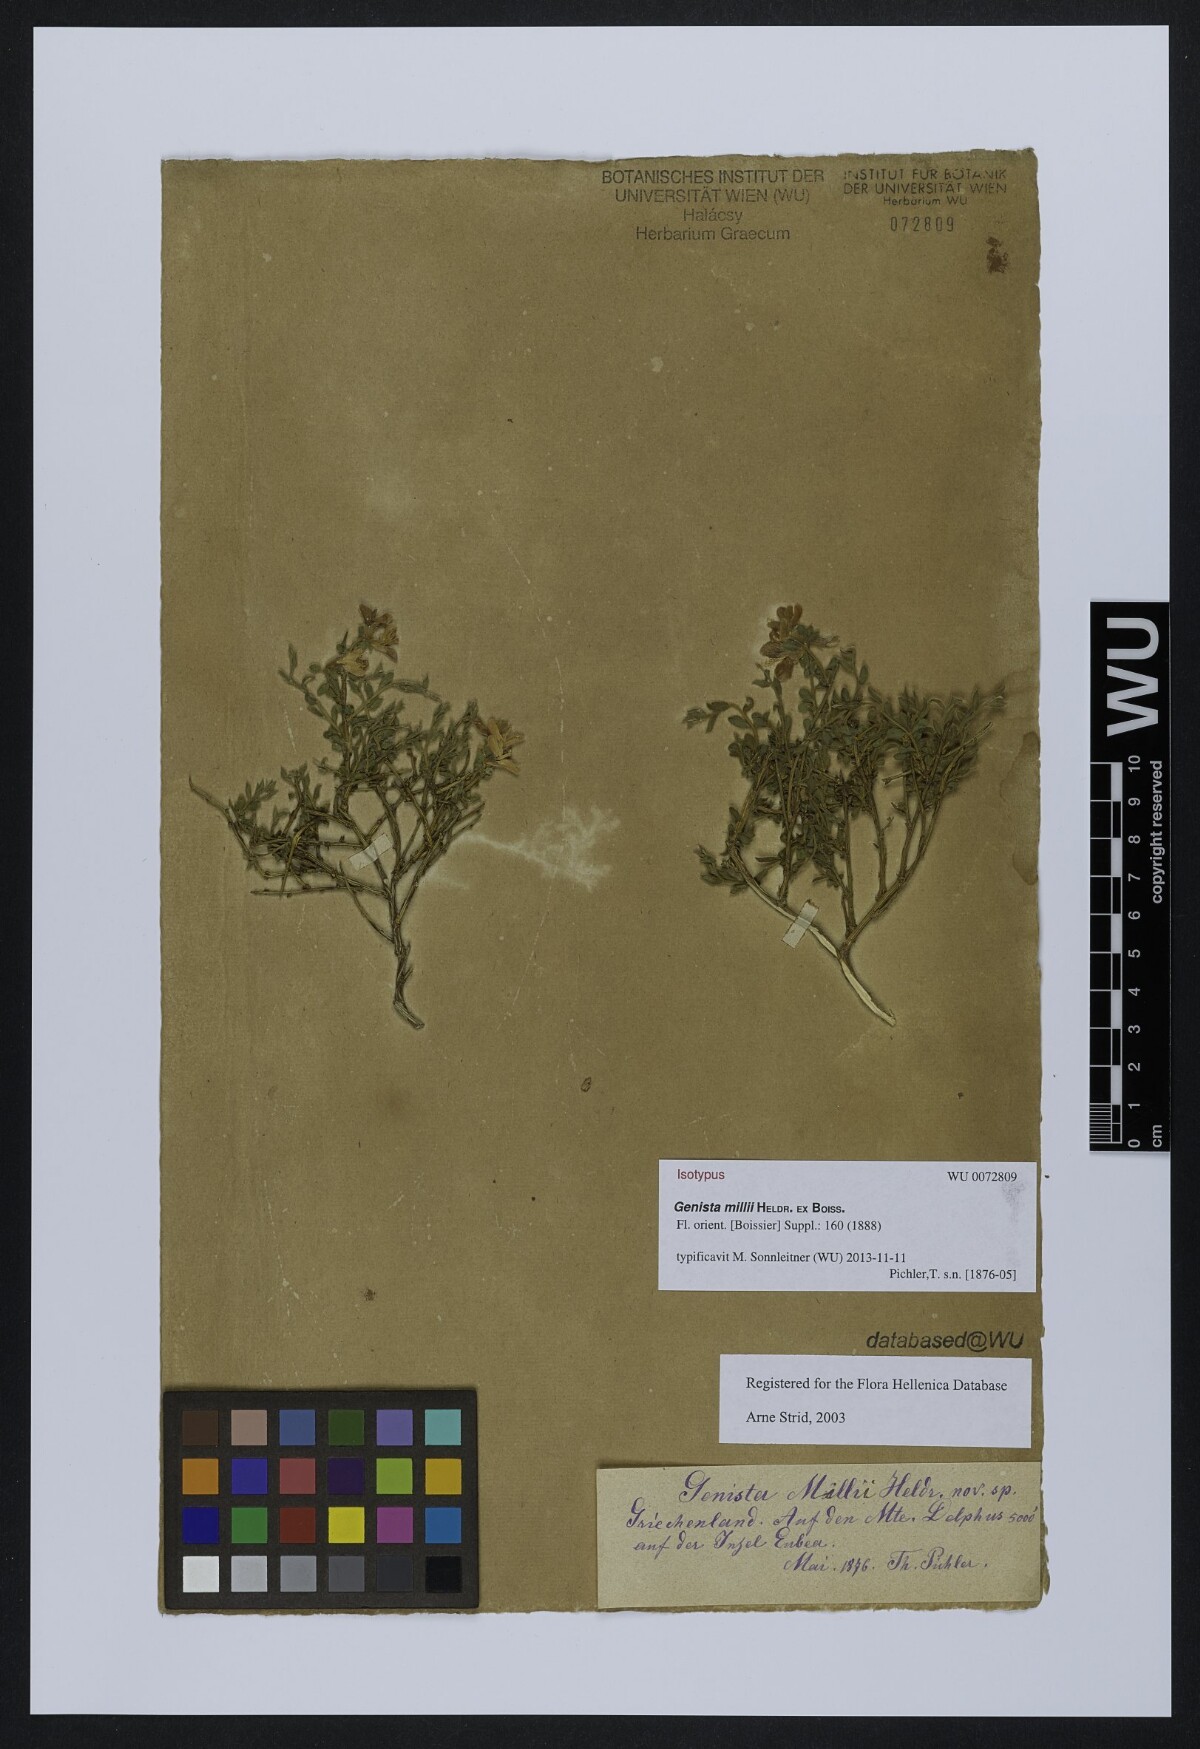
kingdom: Plantae
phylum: Tracheophyta
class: Magnoliopsida
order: Fabales
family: Fabaceae
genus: Genista
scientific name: Genista millii
